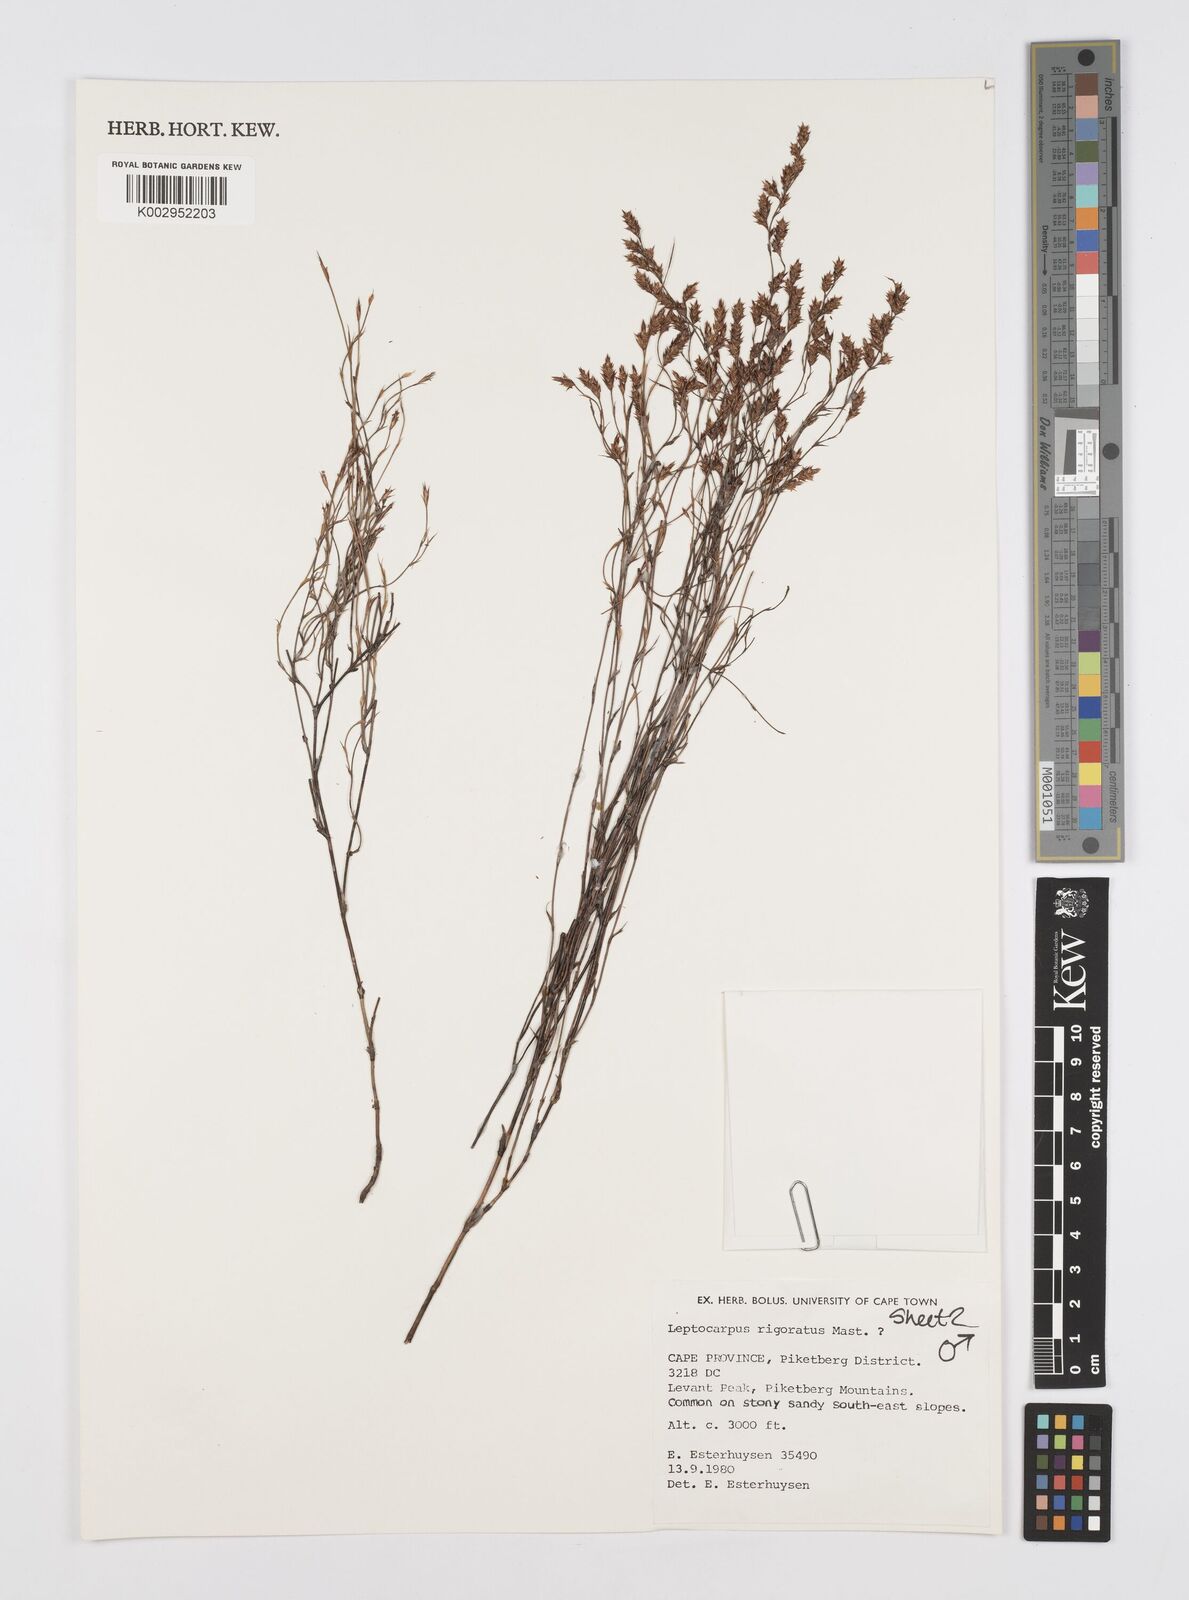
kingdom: Plantae
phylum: Tracheophyta
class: Liliopsida
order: Poales
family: Restionaceae
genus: Restio
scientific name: Restio rigoratus
